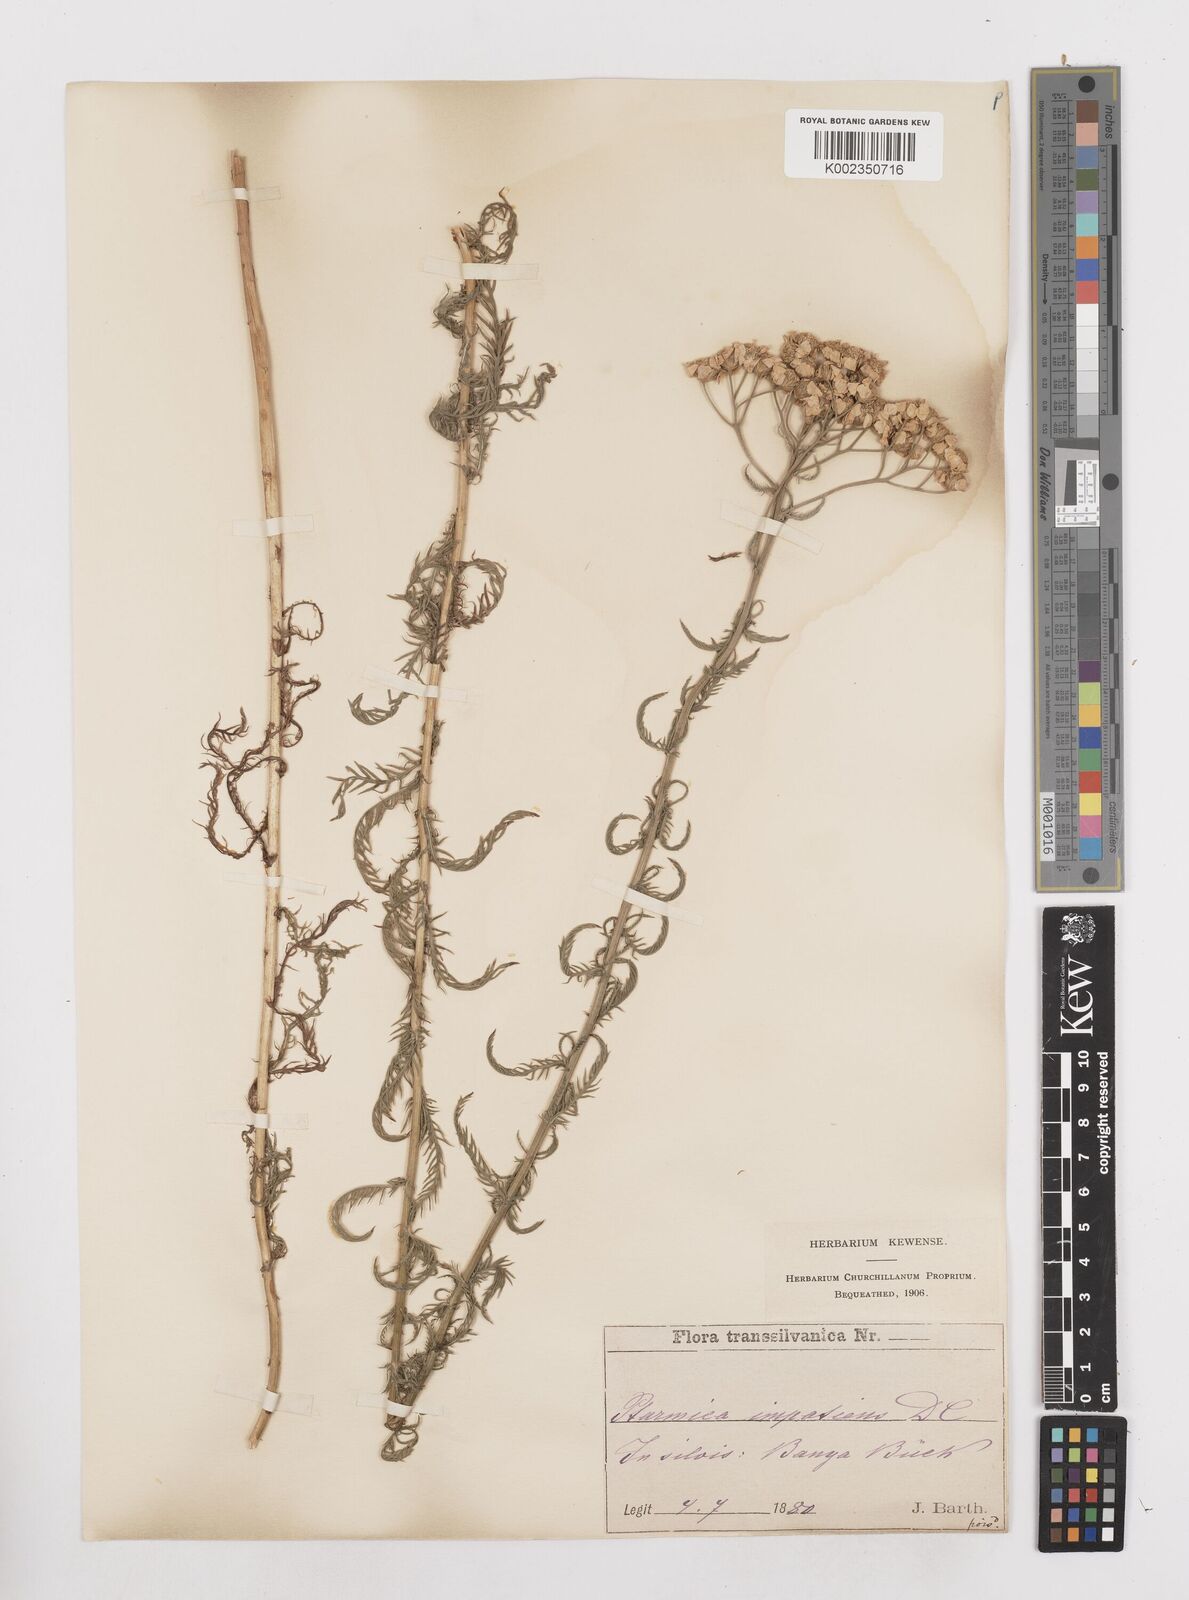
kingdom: Plantae
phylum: Tracheophyta
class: Magnoliopsida
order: Asterales
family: Asteraceae
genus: Achillea
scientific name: Achillea impatiens
